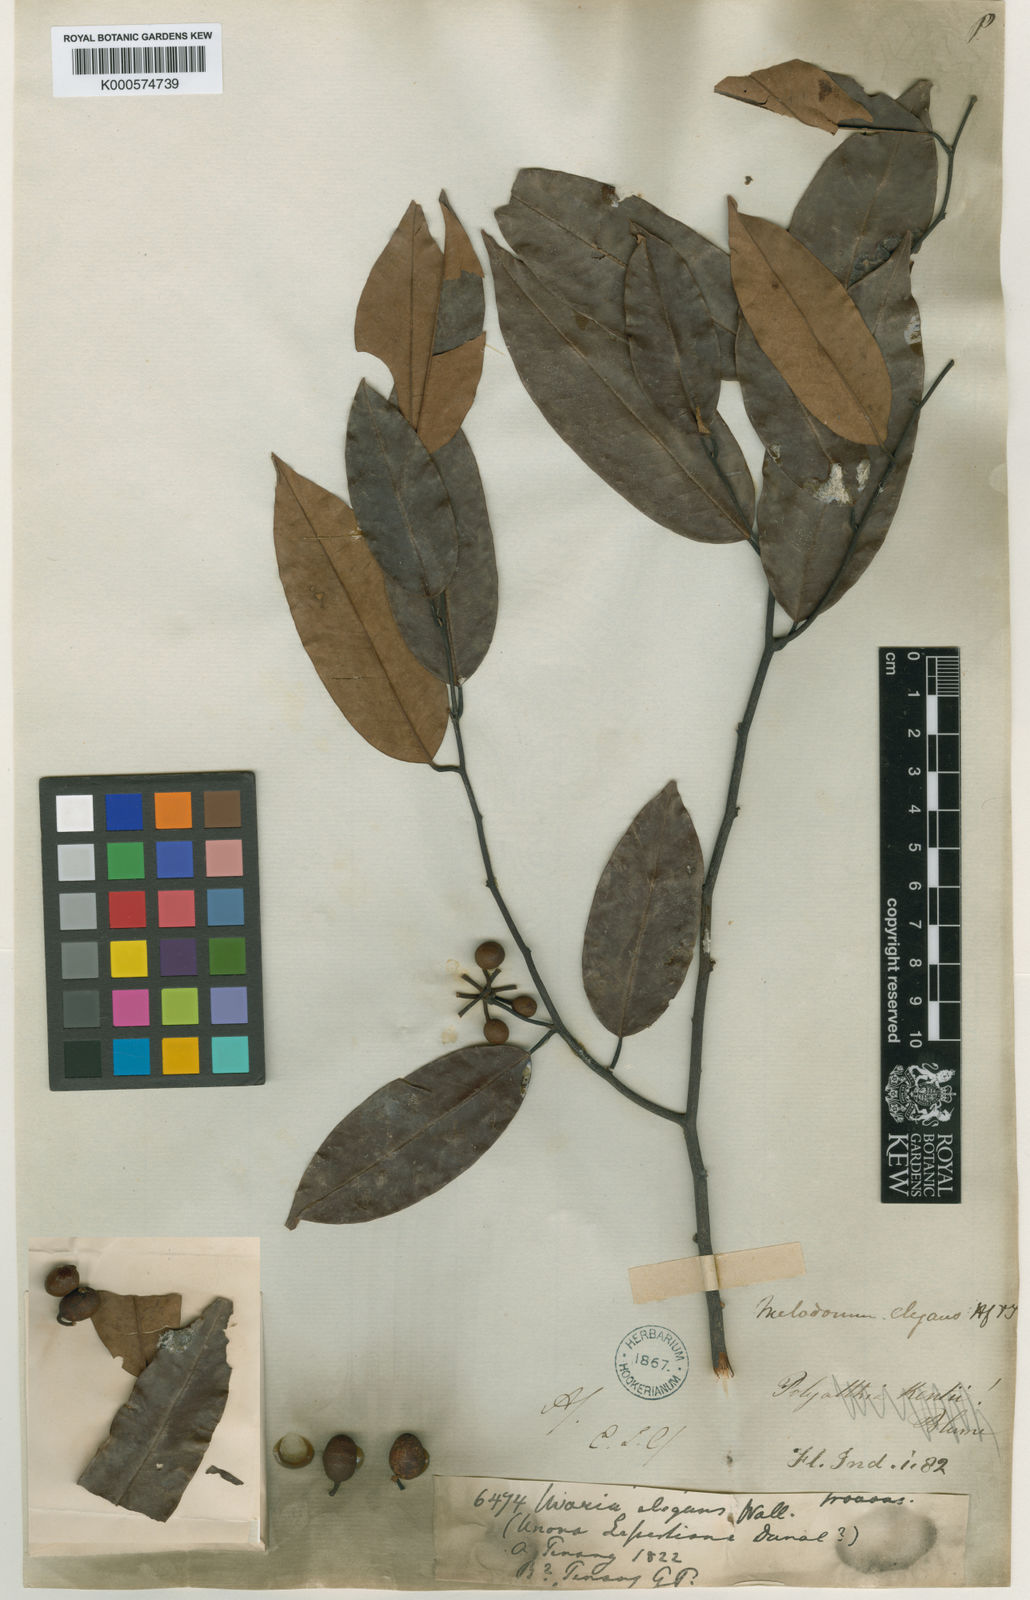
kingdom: Plantae
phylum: Tracheophyta
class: Magnoliopsida
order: Magnoliales
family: Annonaceae
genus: Mitrella
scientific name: Mitrella kentii
